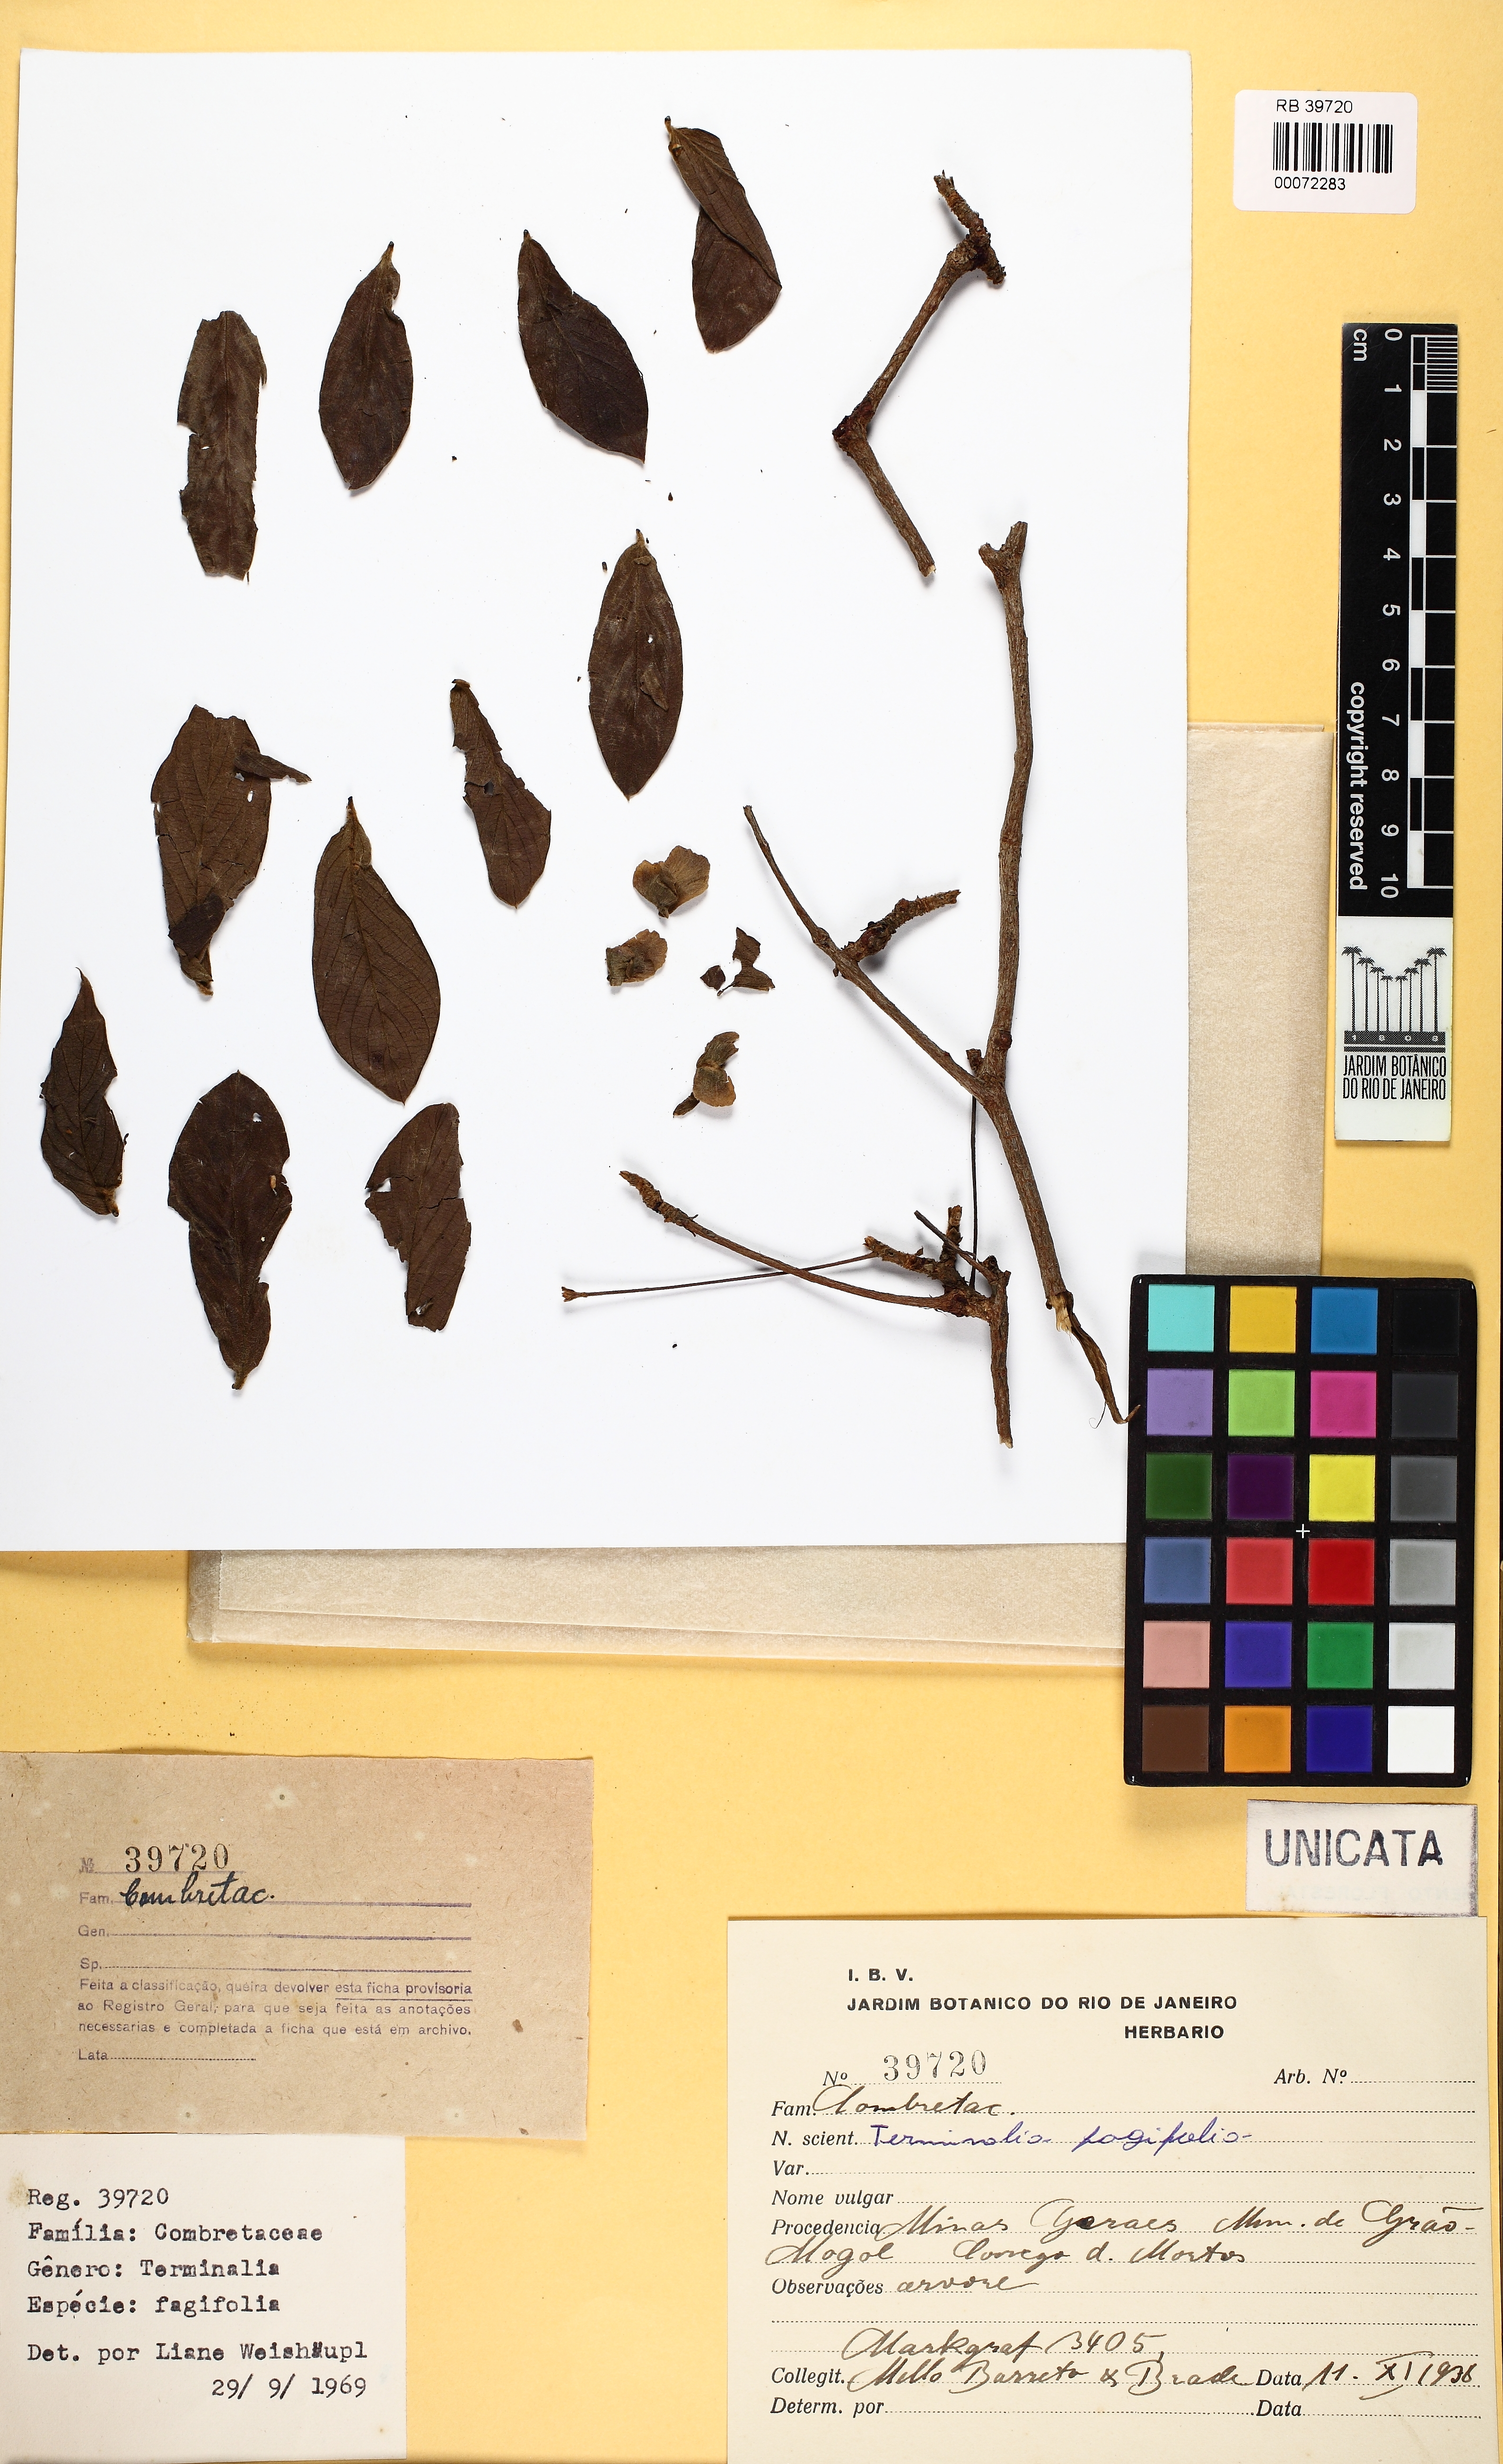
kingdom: Plantae
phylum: Tracheophyta
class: Magnoliopsida
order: Myrtales
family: Combretaceae
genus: Terminalia
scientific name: Terminalia fagifolia
